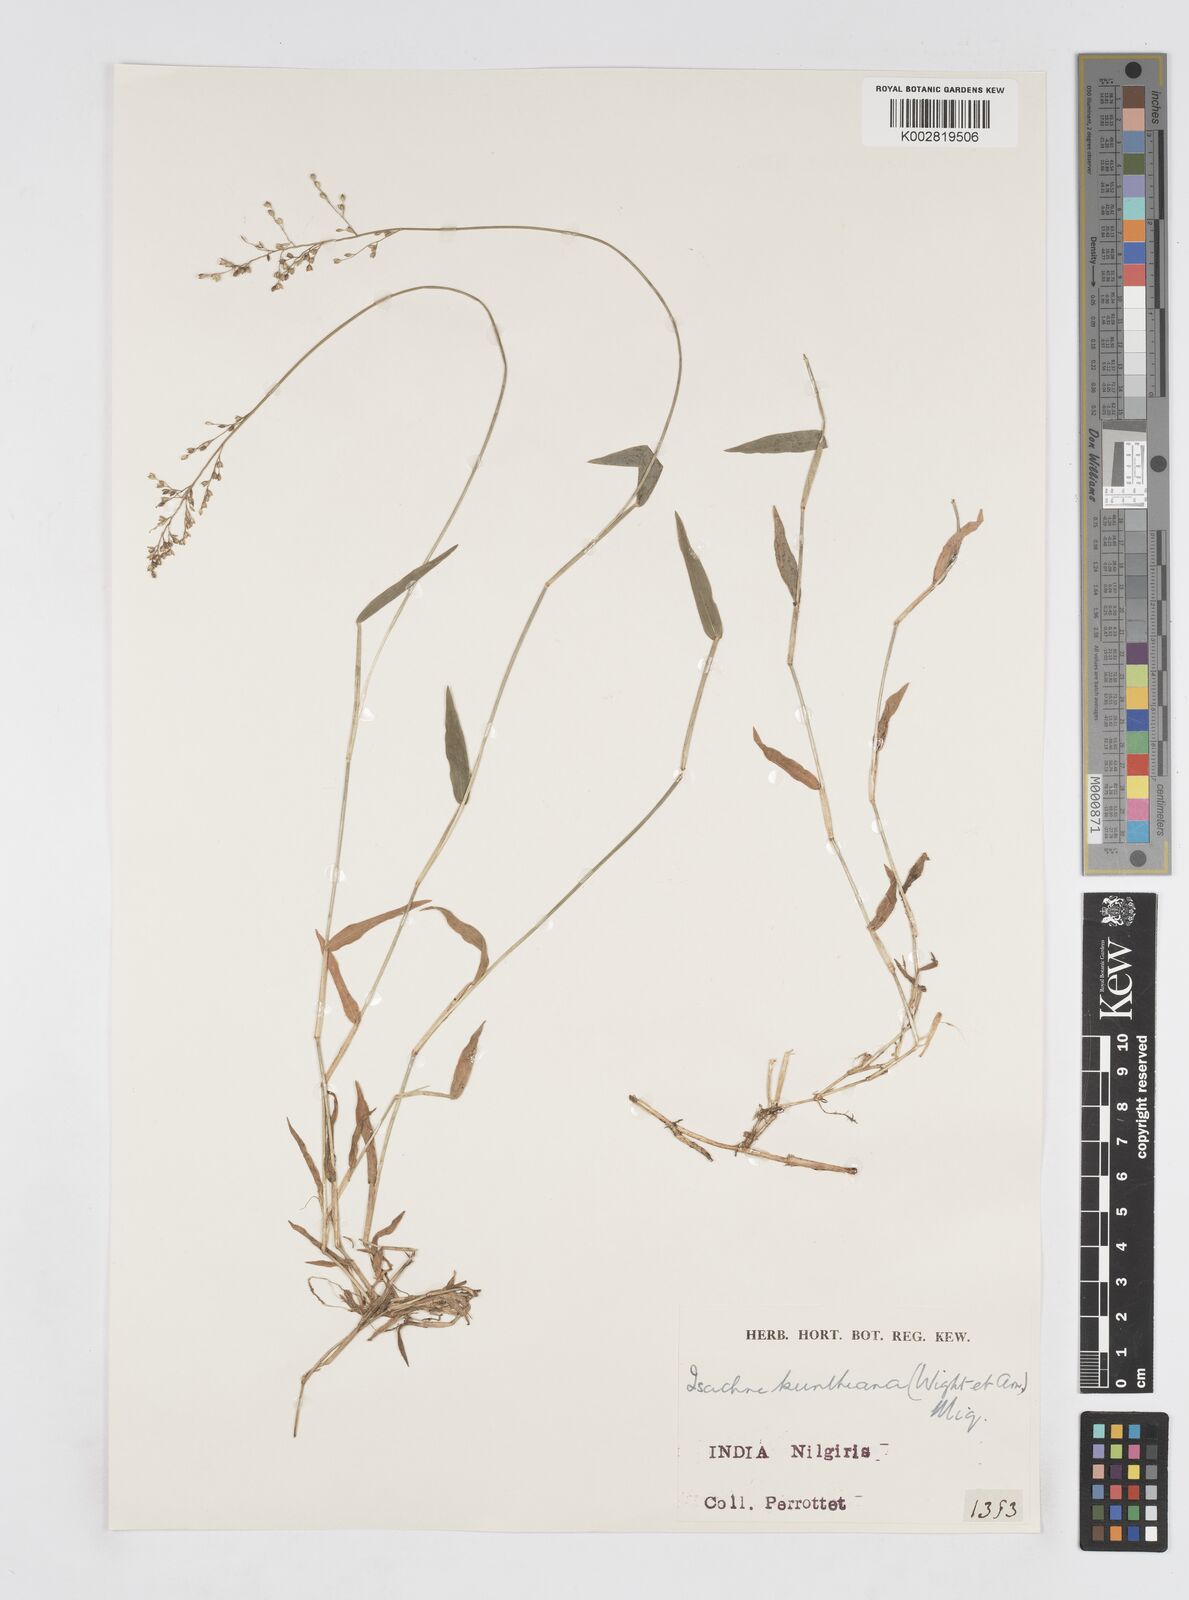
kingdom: Plantae
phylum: Tracheophyta
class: Liliopsida
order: Poales
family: Poaceae
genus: Isachne
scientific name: Isachne kunthiana
